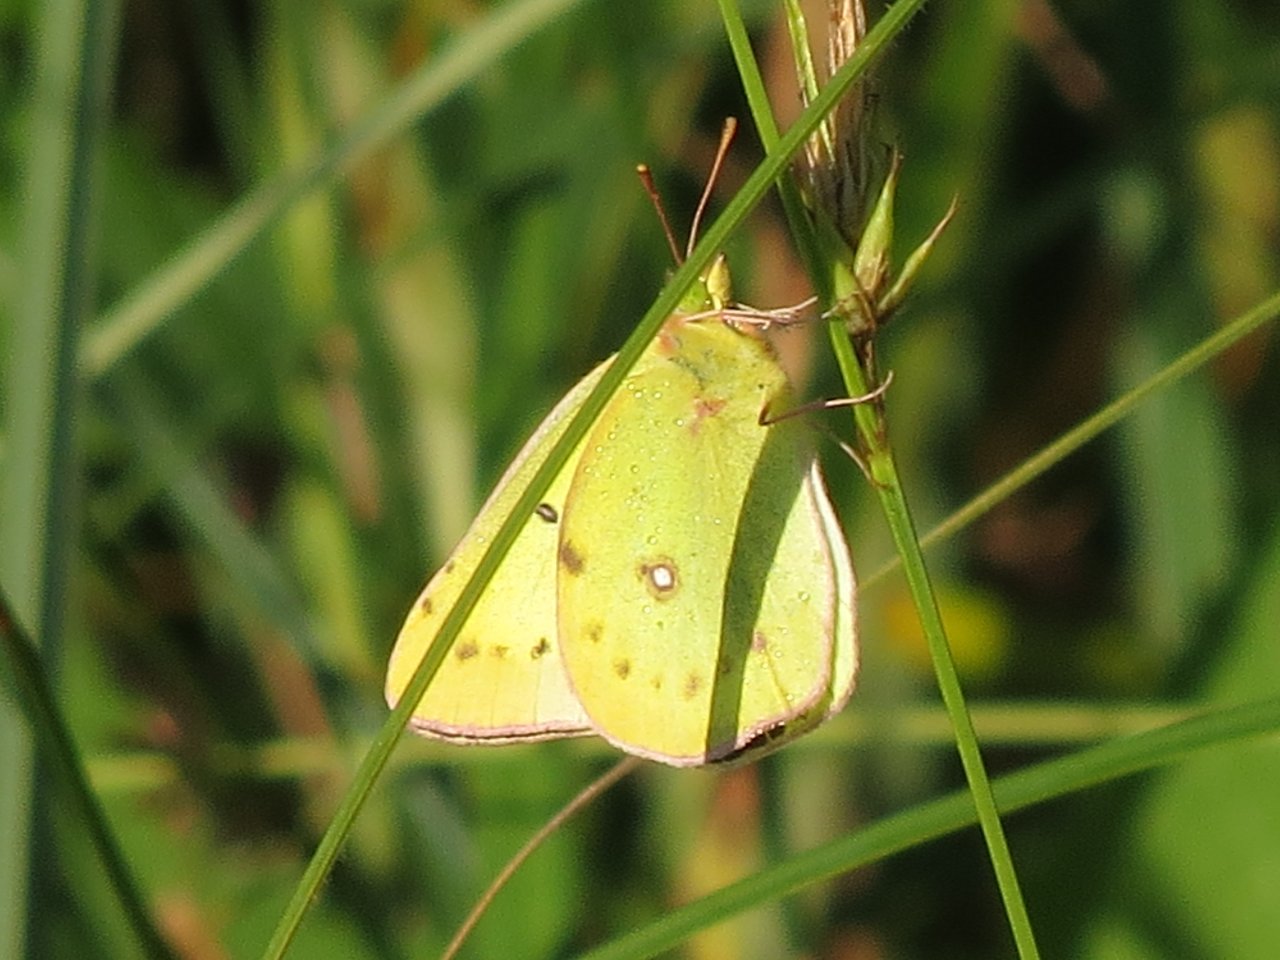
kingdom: Animalia
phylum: Arthropoda
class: Insecta
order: Lepidoptera
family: Pieridae
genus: Colias
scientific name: Colias philodice
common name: Clouded Sulphur
